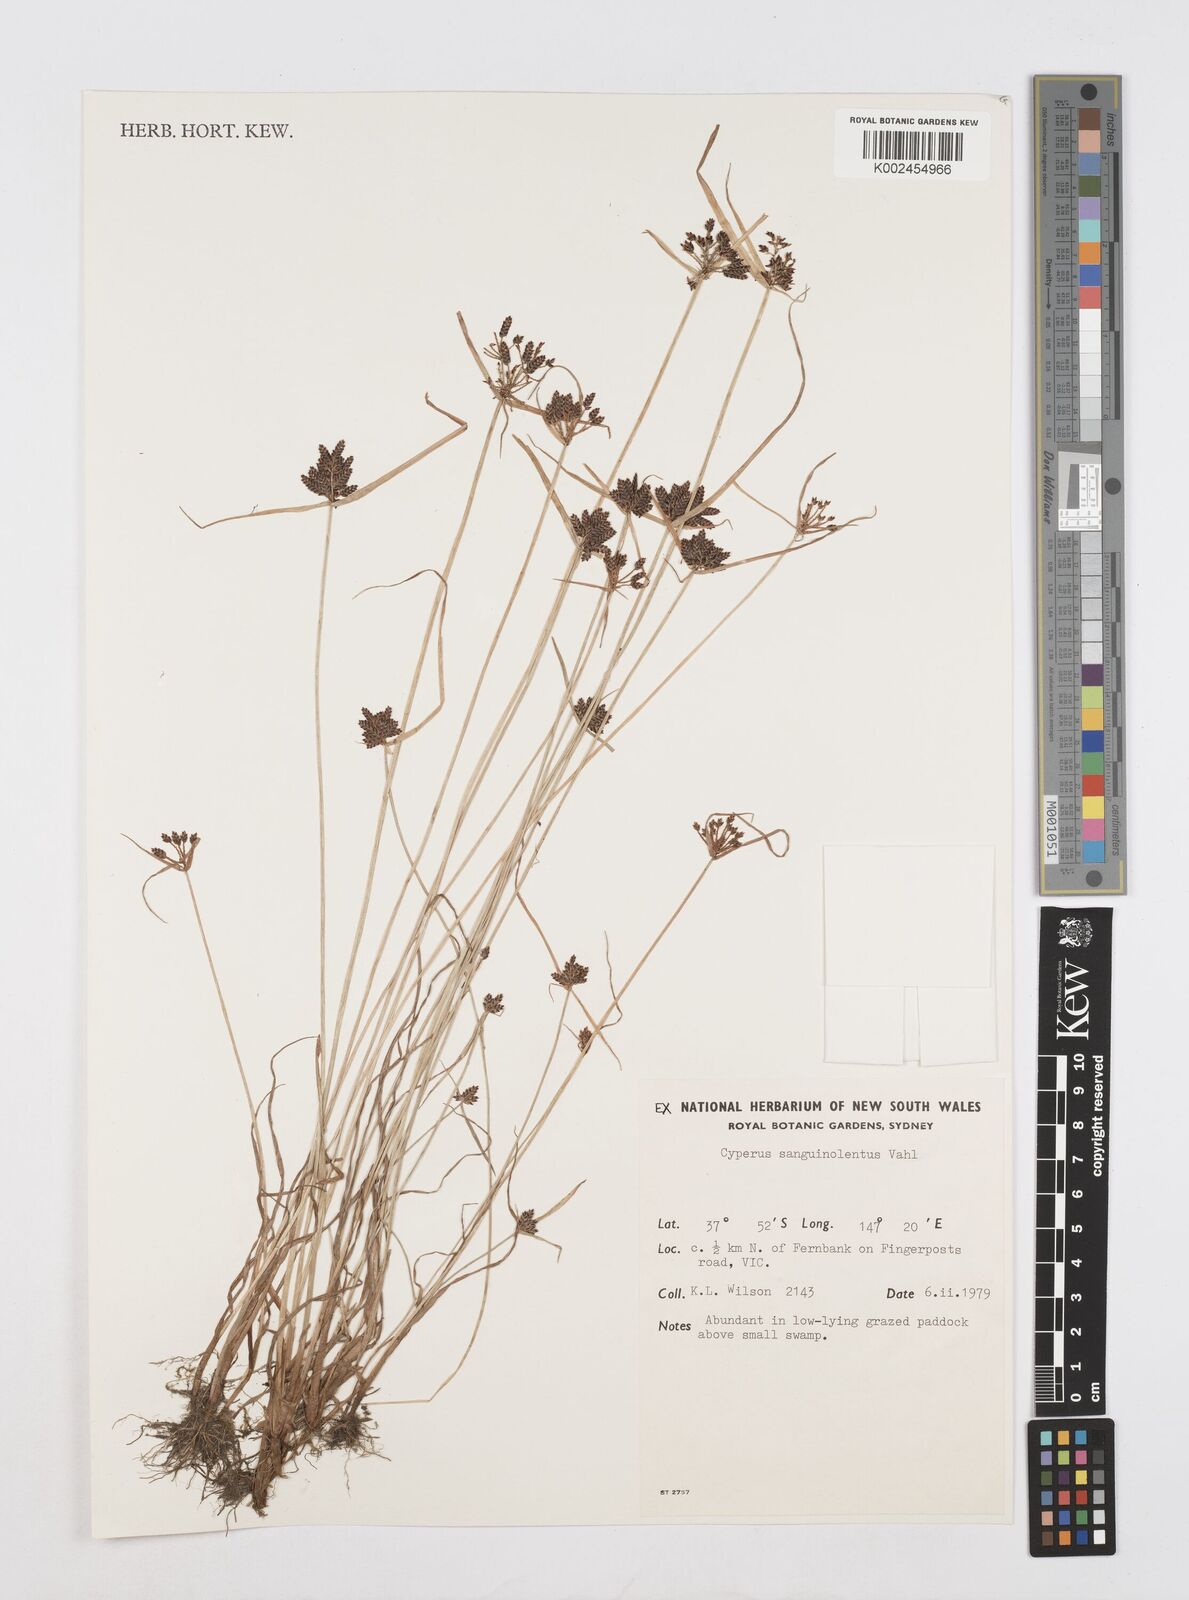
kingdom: Plantae
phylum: Tracheophyta
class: Liliopsida
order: Poales
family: Cyperaceae
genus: Cyperus
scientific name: Cyperus sanguinolentus
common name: Purpleglume flatsedge
